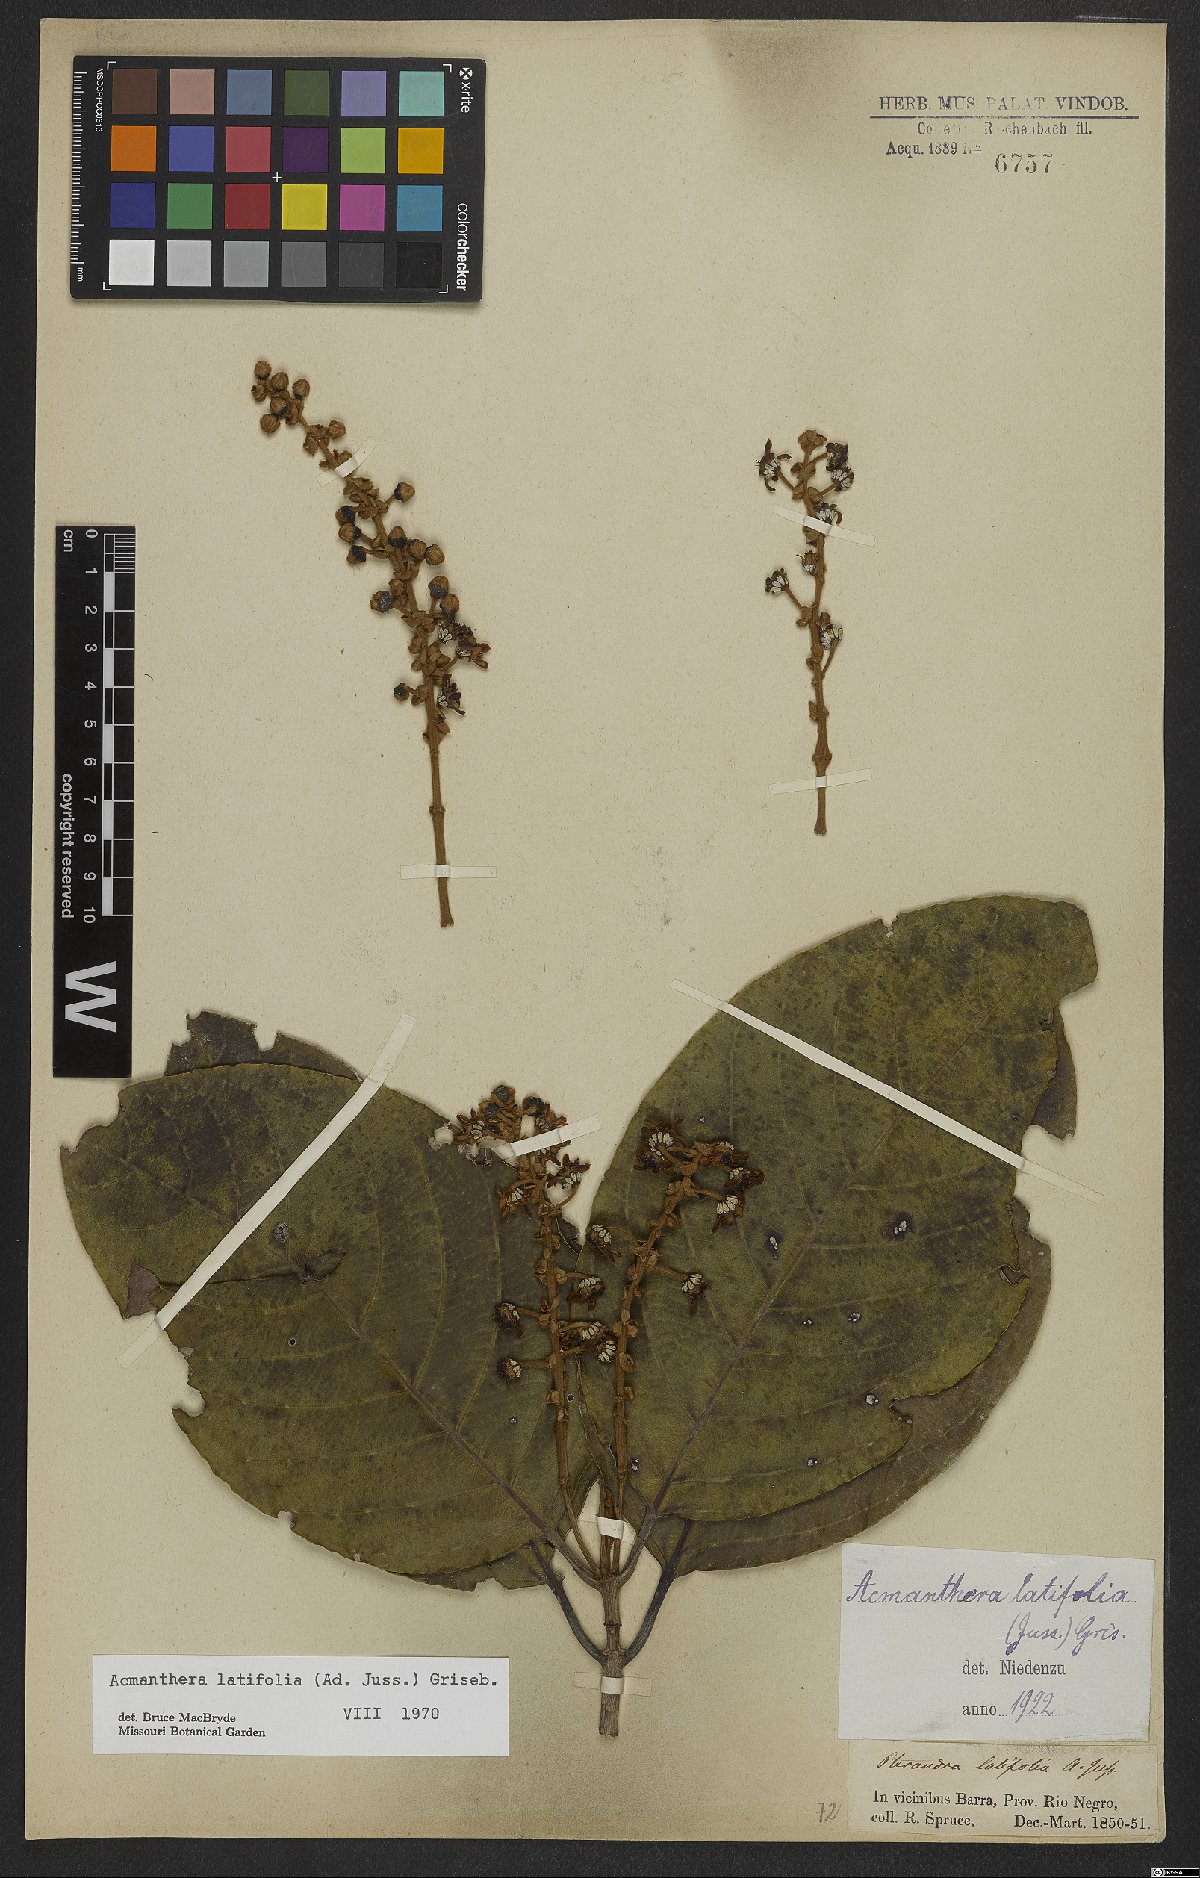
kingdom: Plantae
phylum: Tracheophyta
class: Magnoliopsida
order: Malpighiales
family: Malpighiaceae
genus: Acmanthera
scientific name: Acmanthera latifolia
